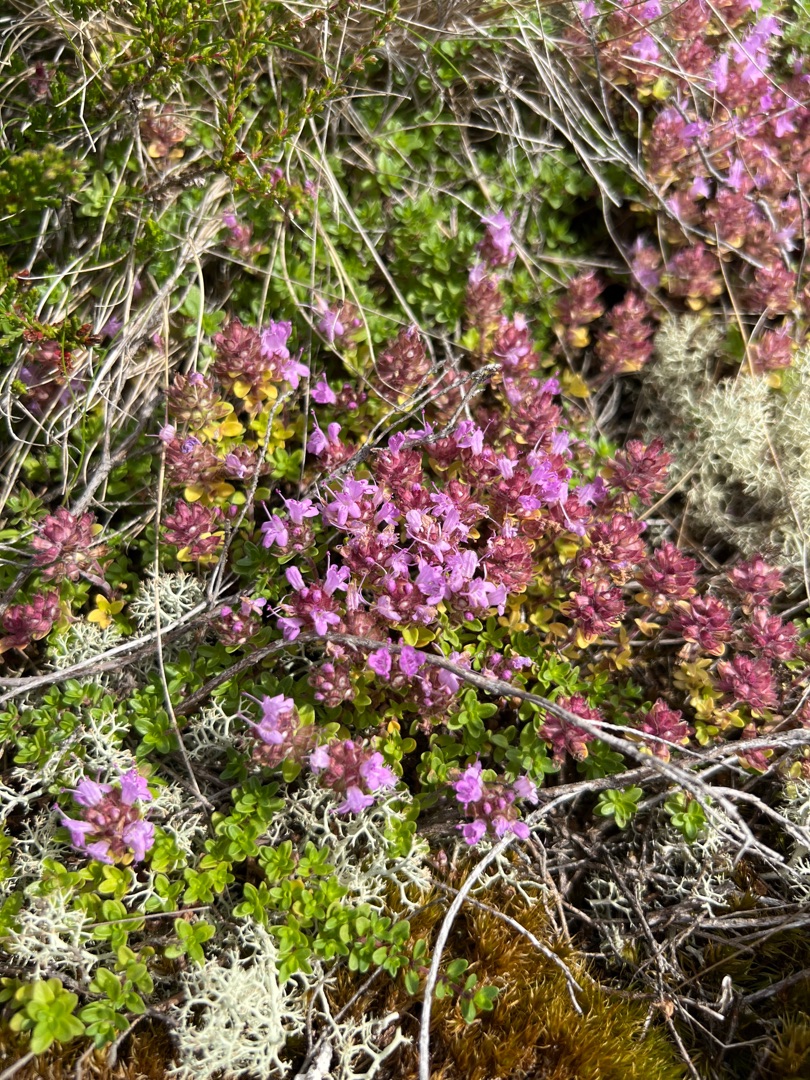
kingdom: Plantae
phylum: Tracheophyta
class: Magnoliopsida
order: Lamiales
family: Lamiaceae
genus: Thymus
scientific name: Thymus serpyllum
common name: Smalbladet timian
